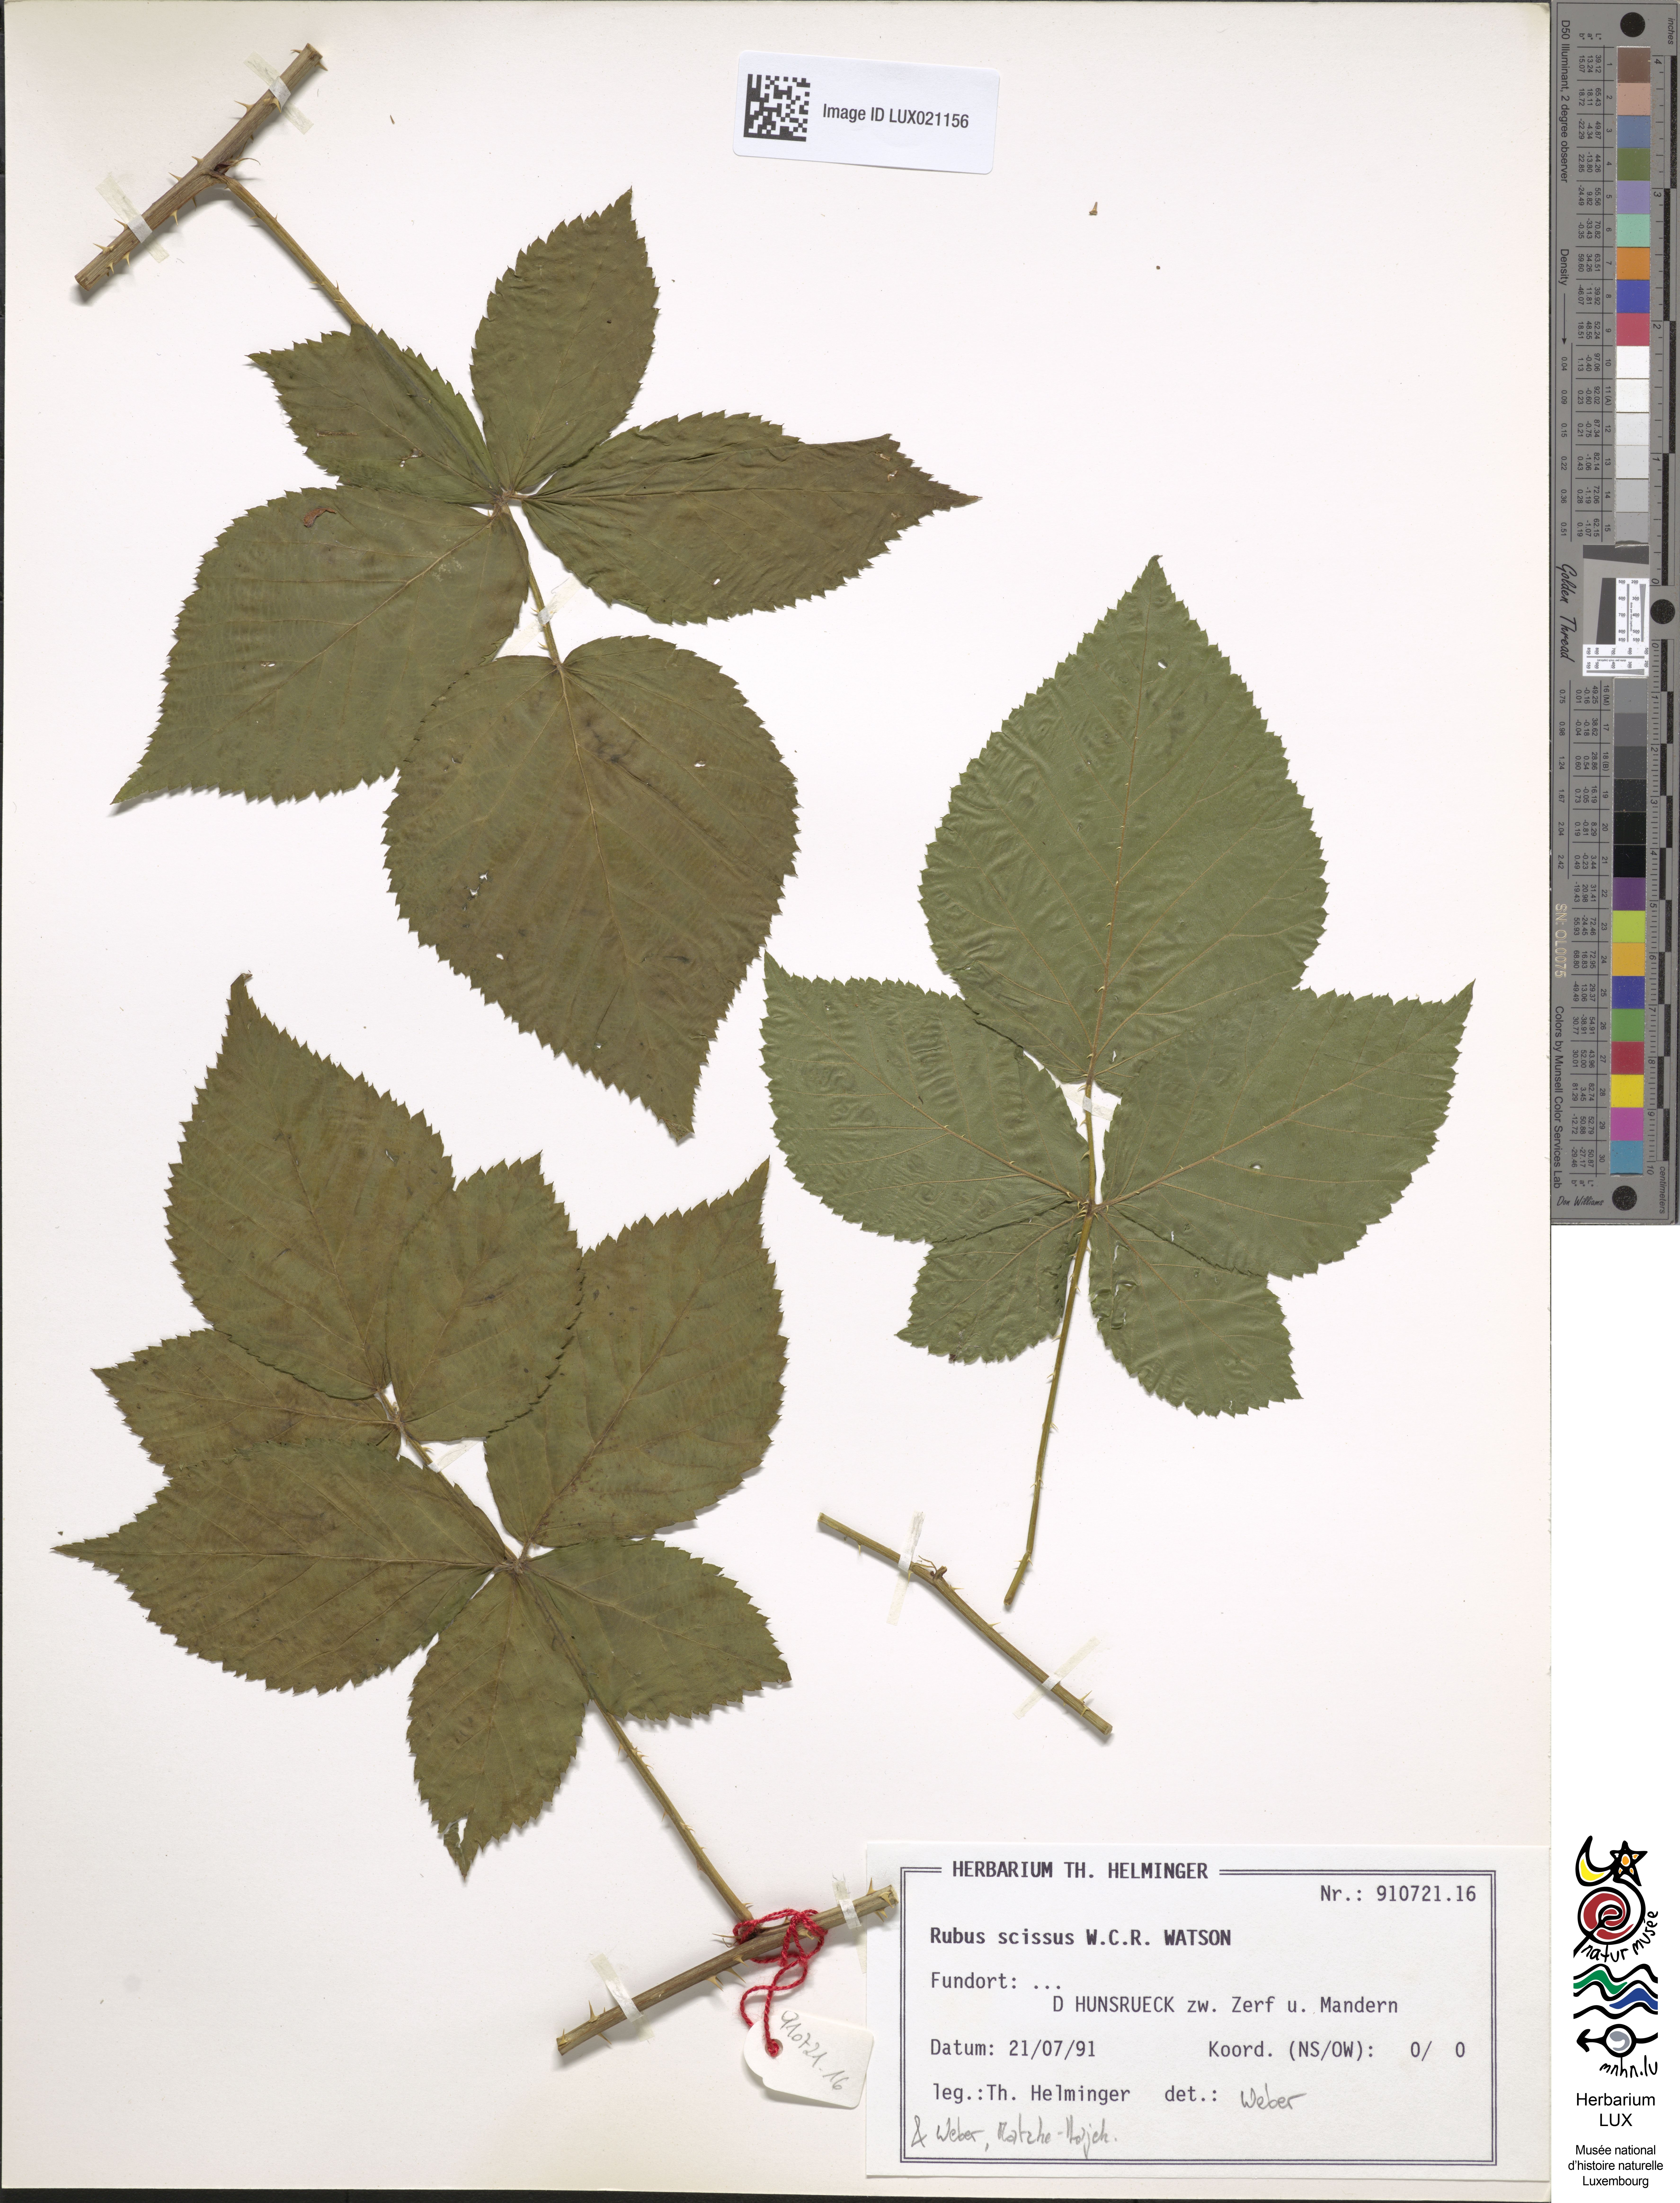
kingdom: Plantae
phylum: Tracheophyta
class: Magnoliopsida
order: Rosales
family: Rosaceae
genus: Rubus
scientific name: Rubus scissus
